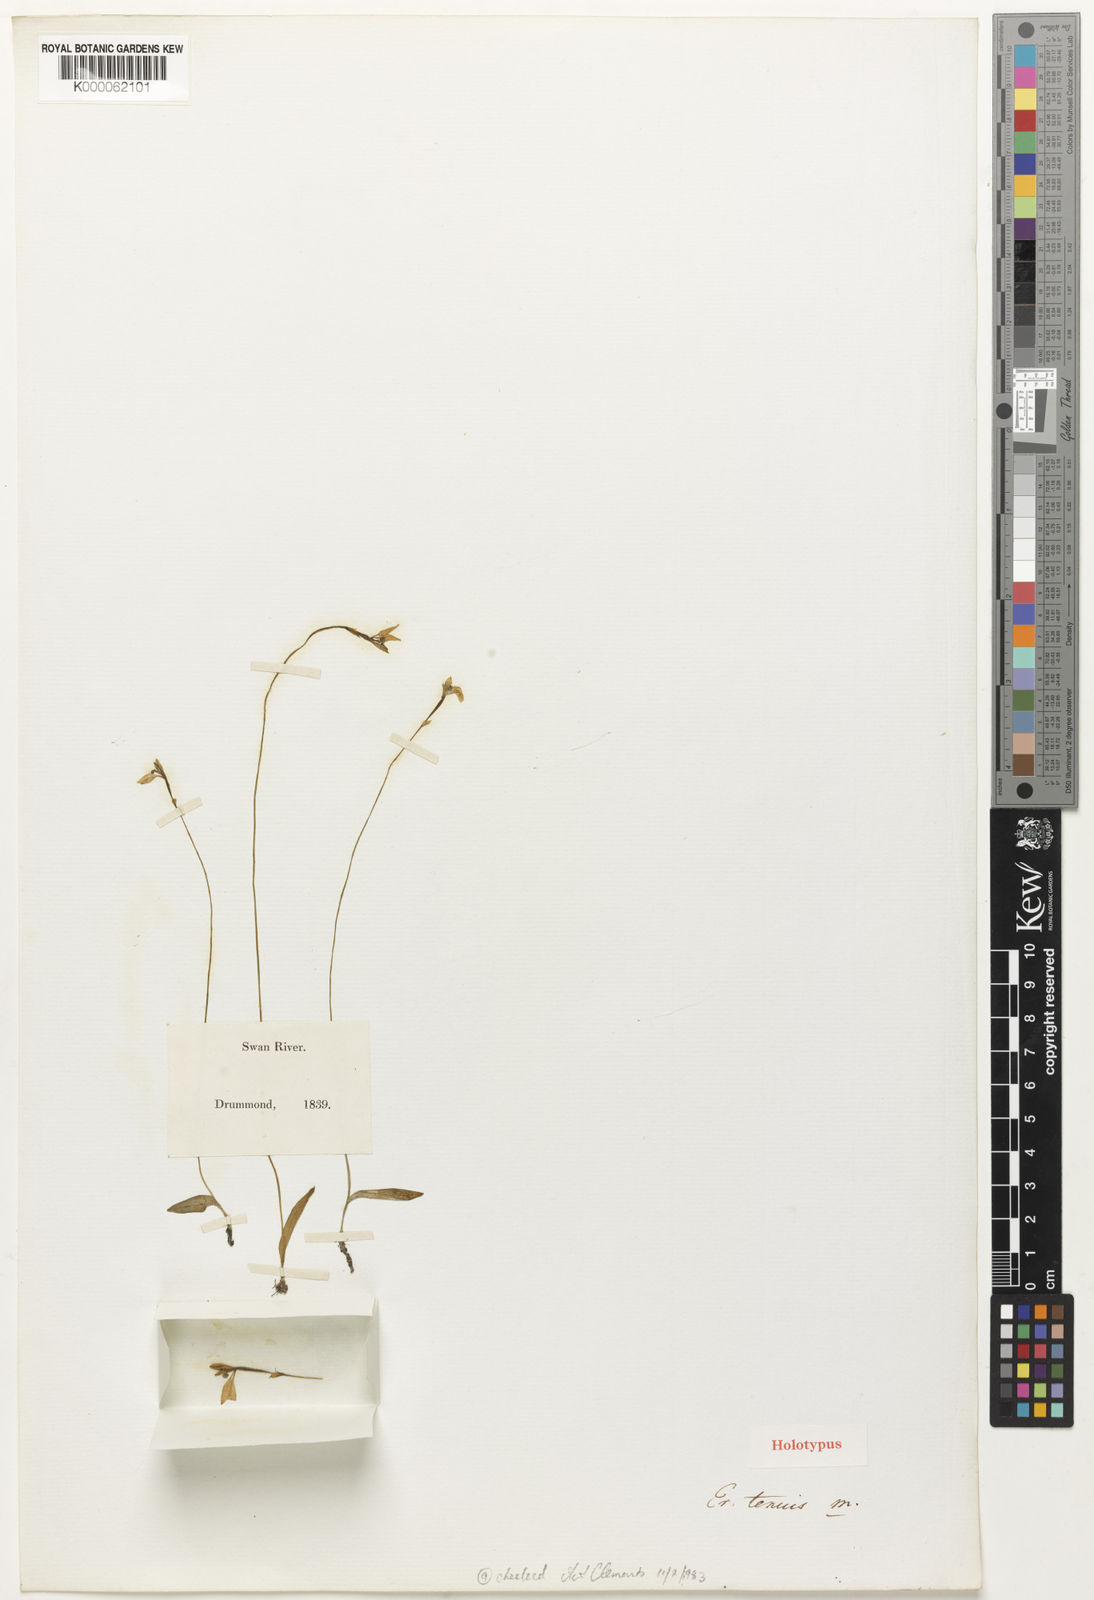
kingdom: Plantae
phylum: Tracheophyta
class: Liliopsida
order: Asparagales
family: Orchidaceae
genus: Eriochilus
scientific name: Eriochilus tenuis
